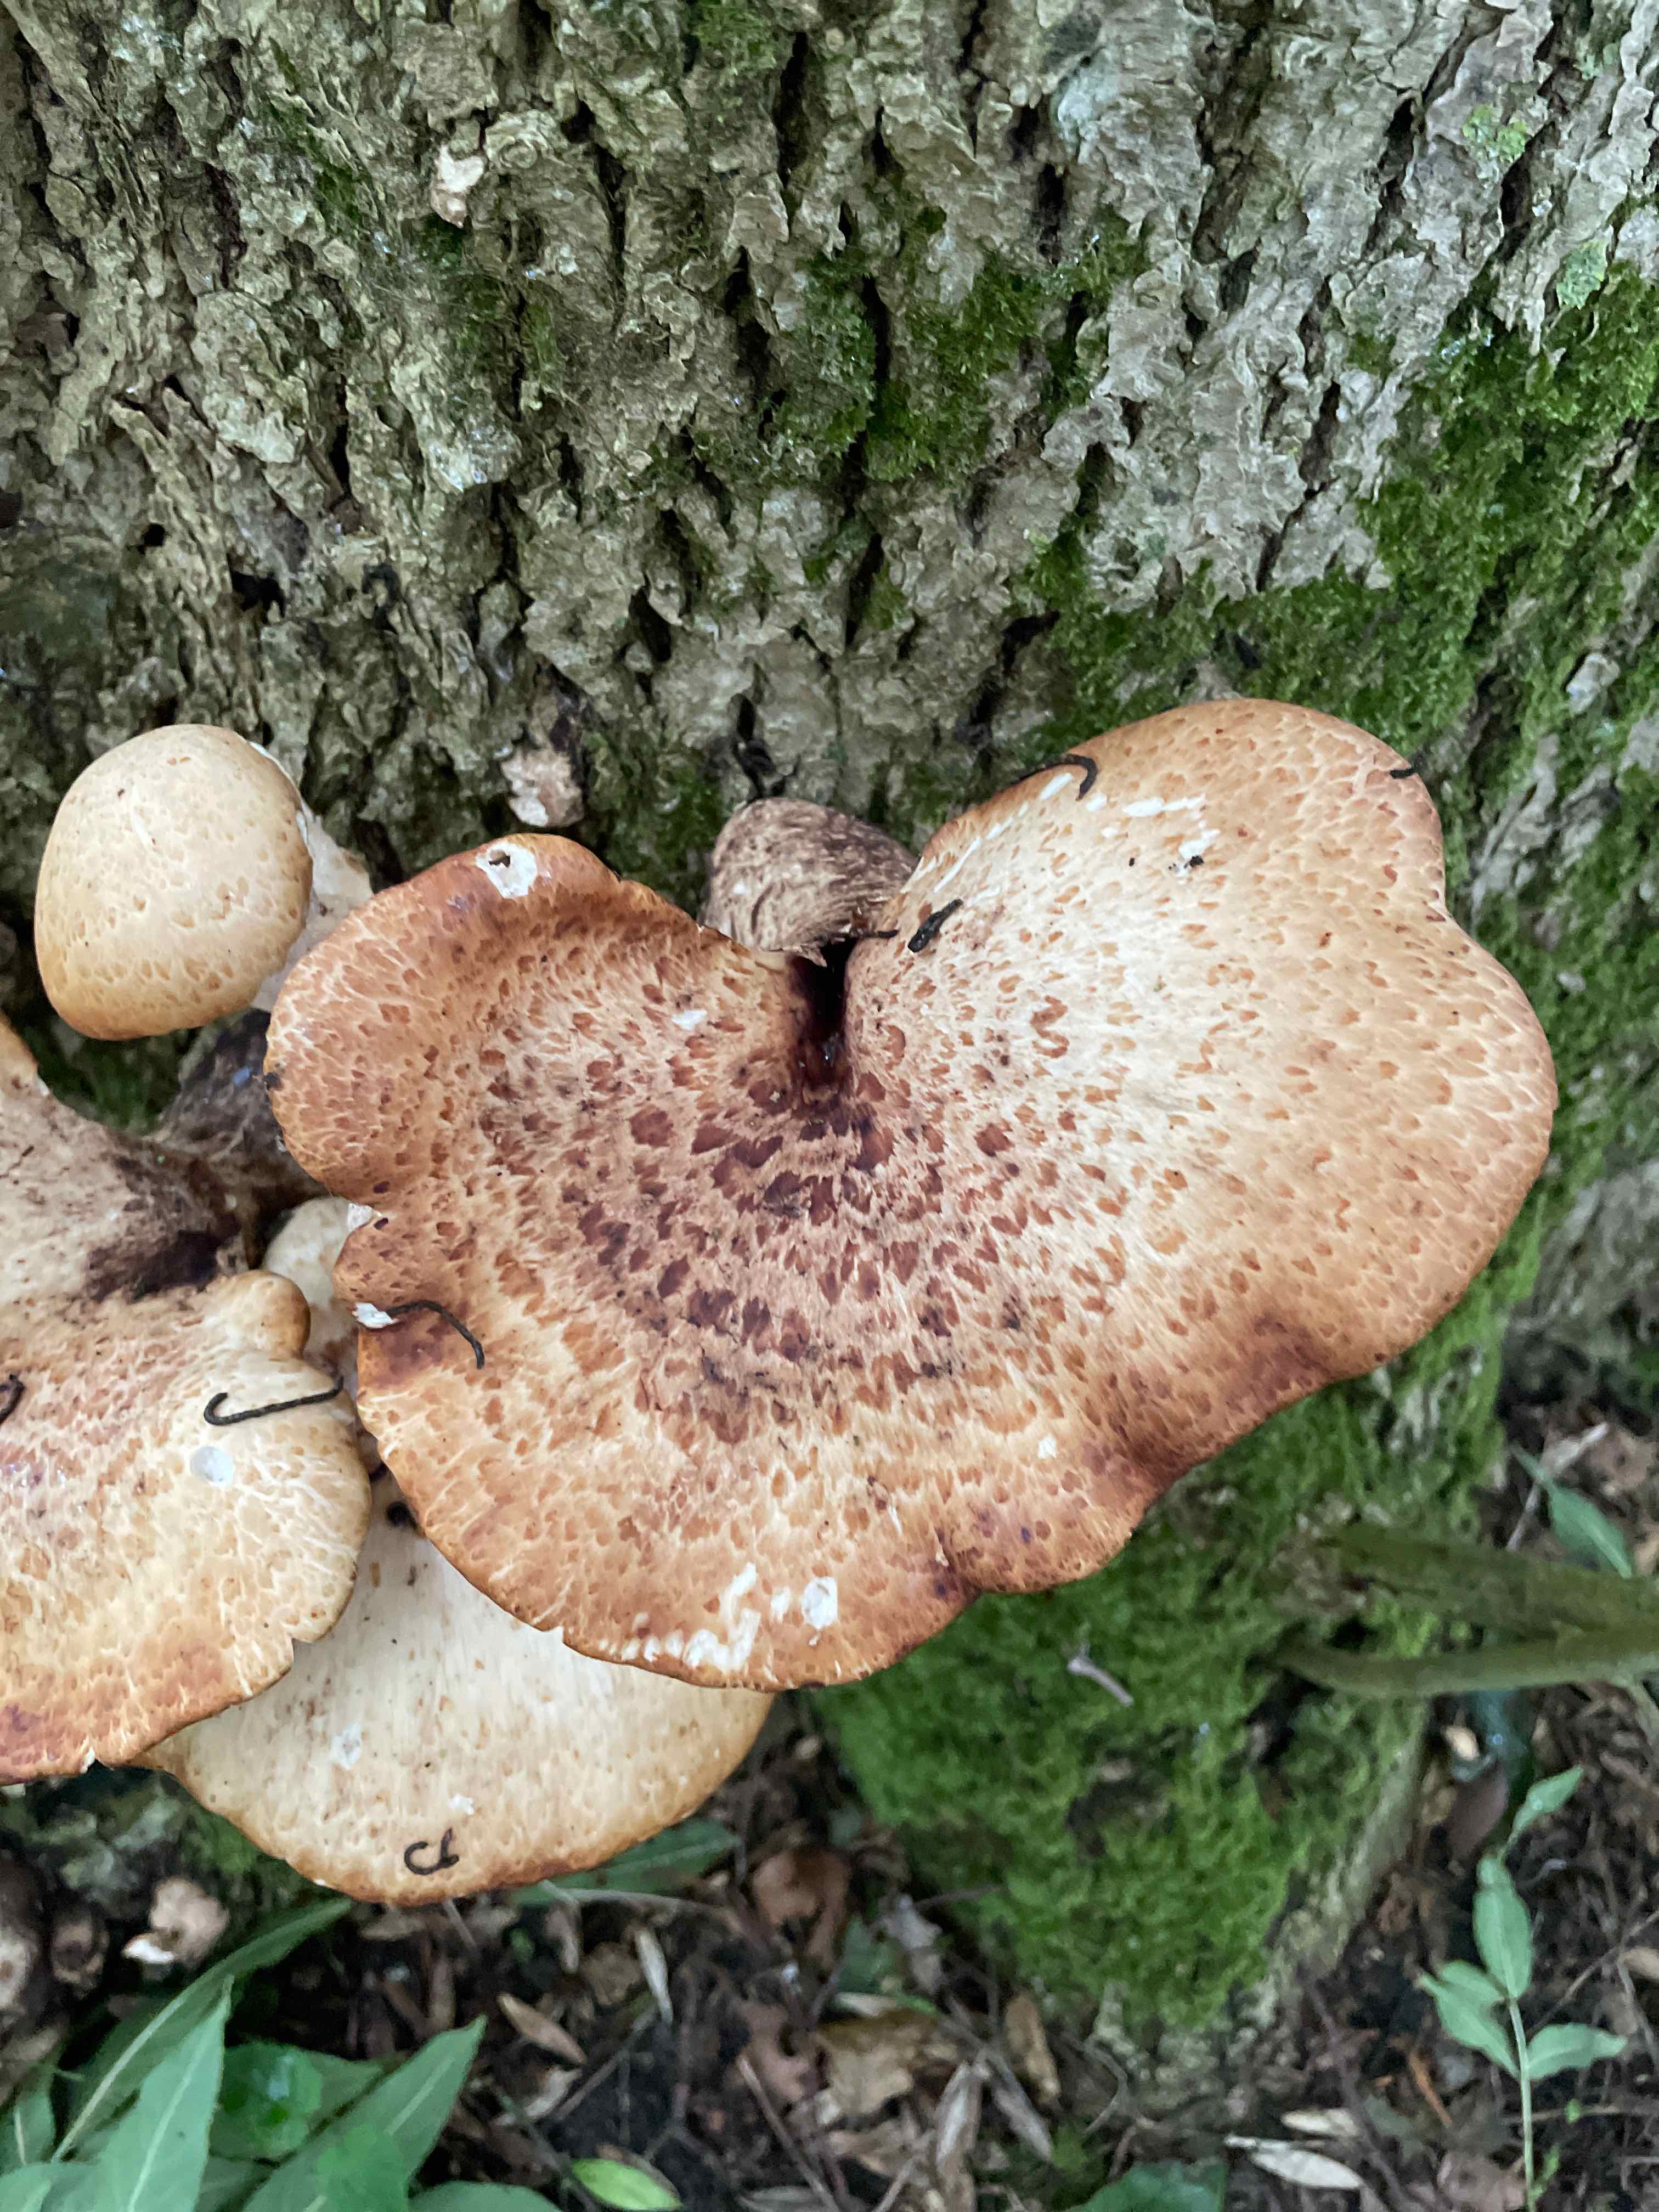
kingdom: Fungi
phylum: Basidiomycota
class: Agaricomycetes
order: Polyporales
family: Polyporaceae
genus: Cerioporus
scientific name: Cerioporus squamosus
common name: skællet stilkporesvamp
